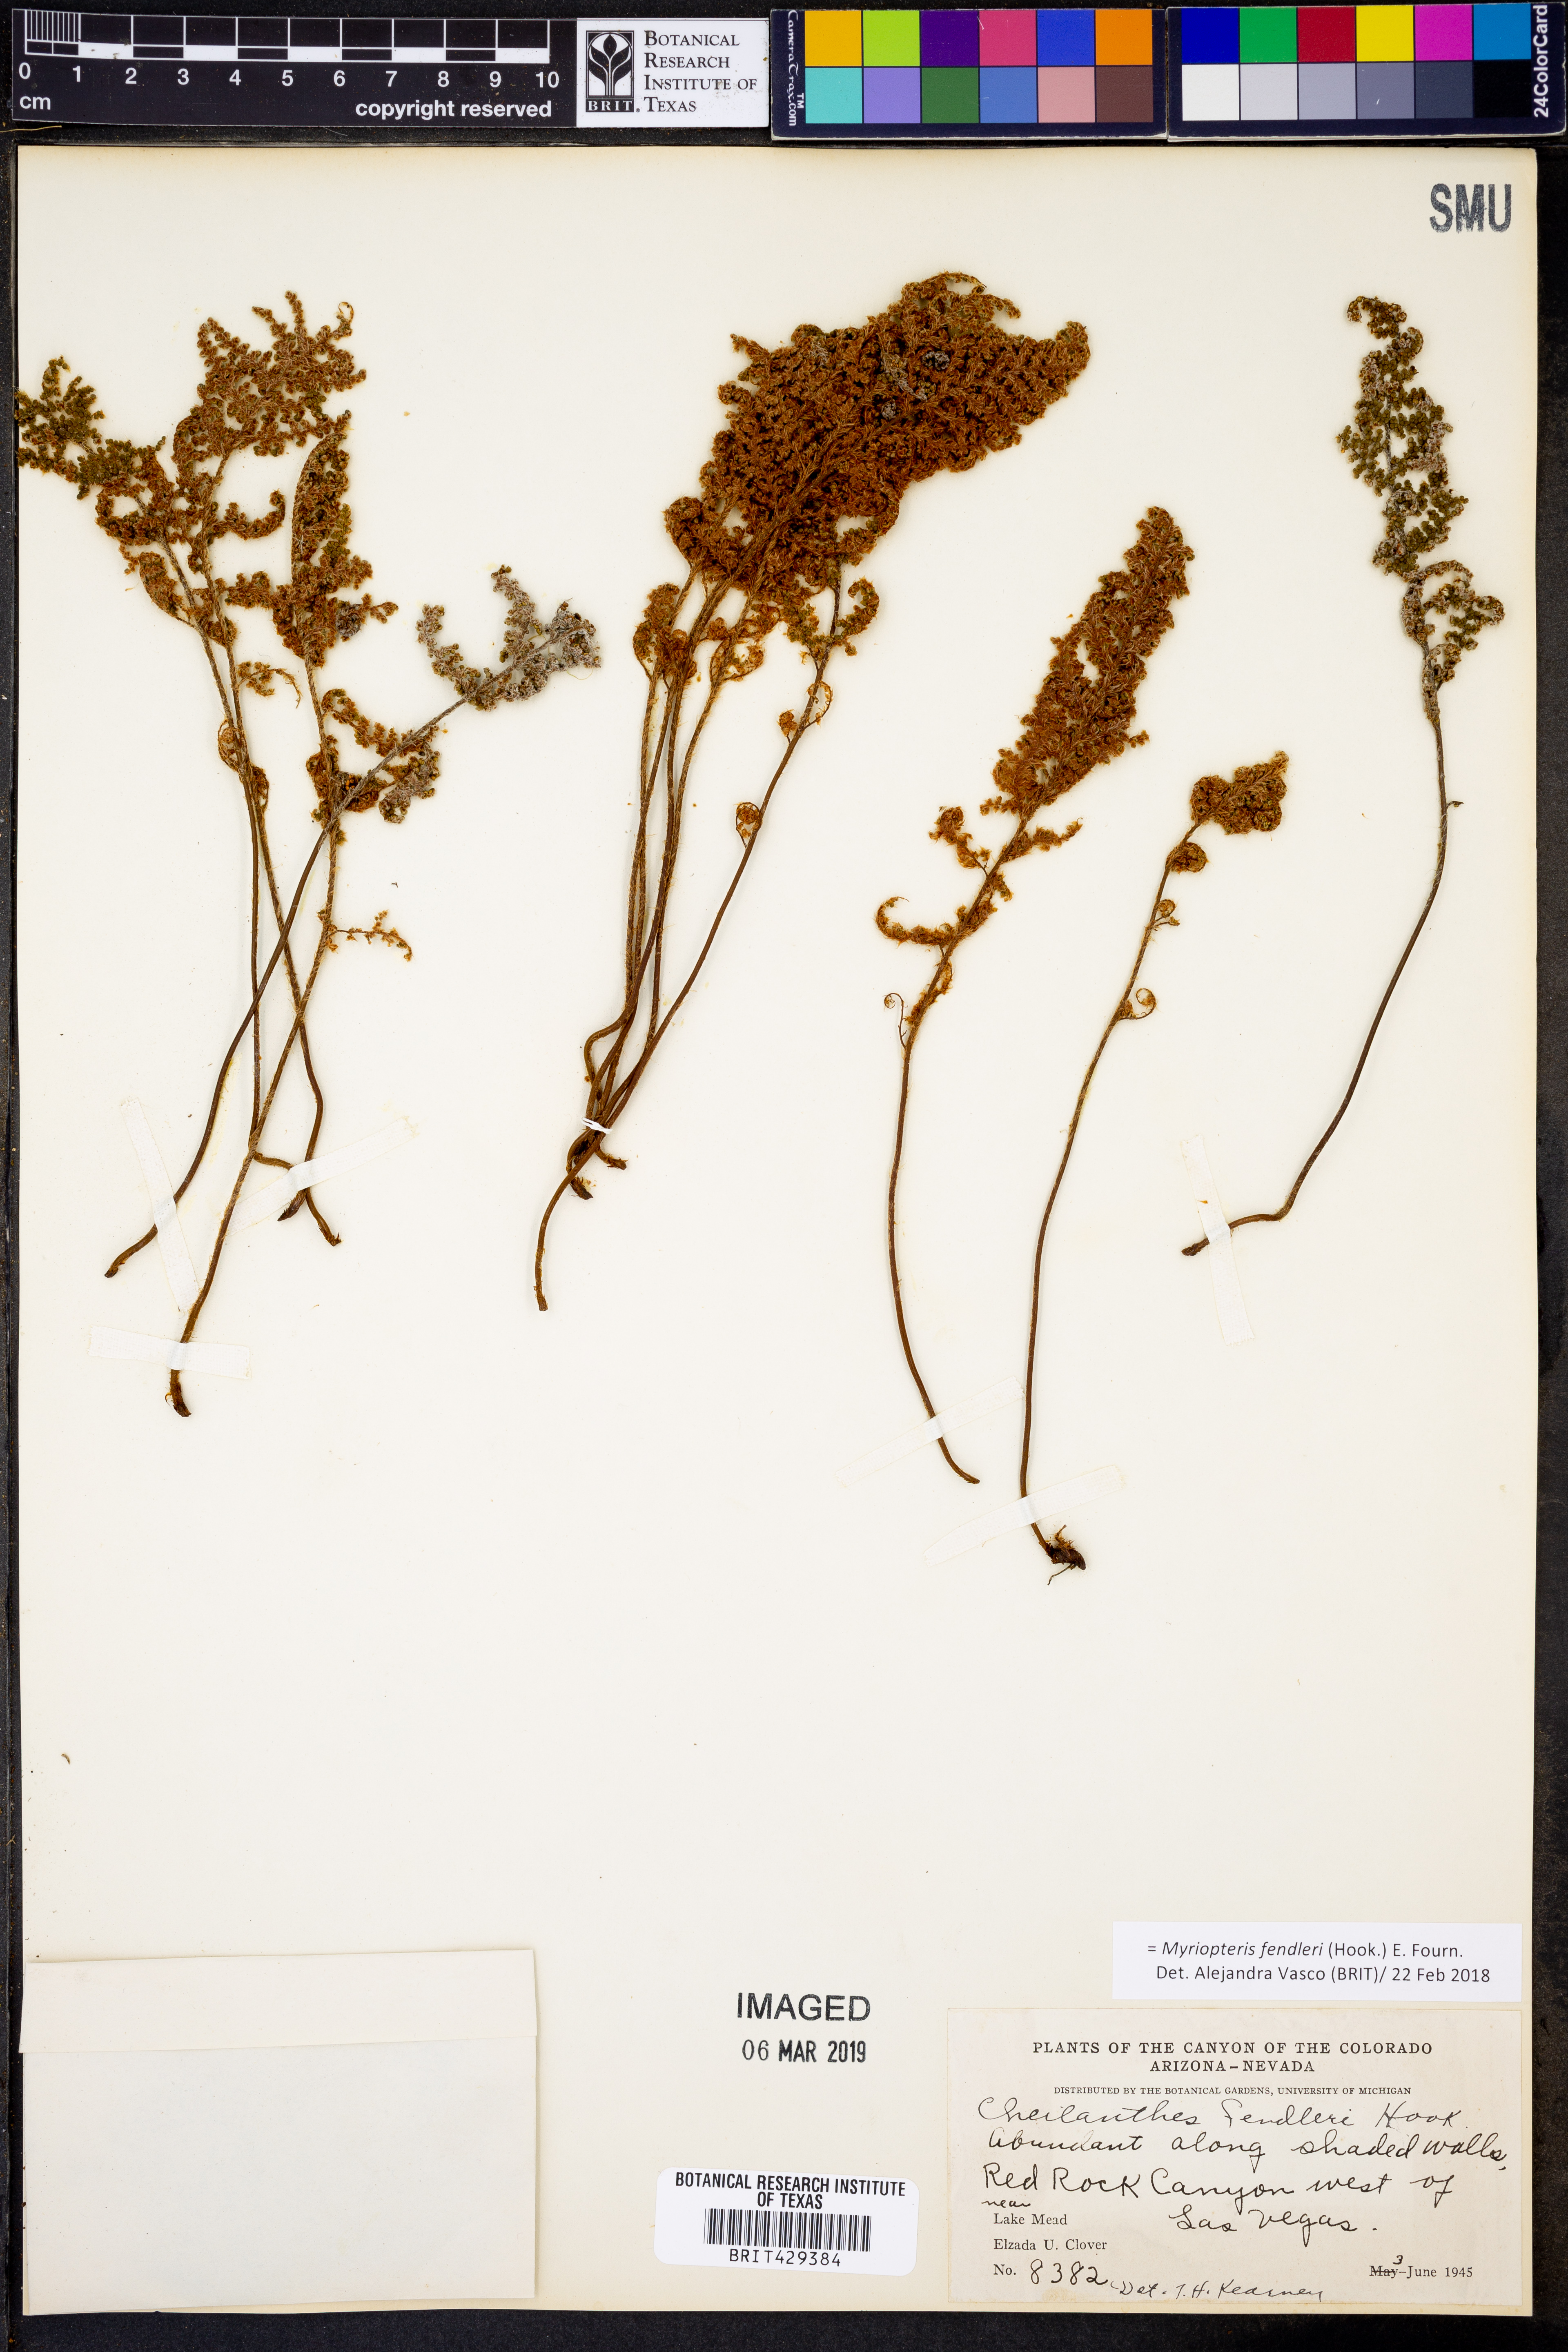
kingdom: Plantae
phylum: Tracheophyta
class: Polypodiopsida
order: Polypodiales
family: Pteridaceae
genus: Myriopteris
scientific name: Myriopteris fendleri
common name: Fendler's lip fern
